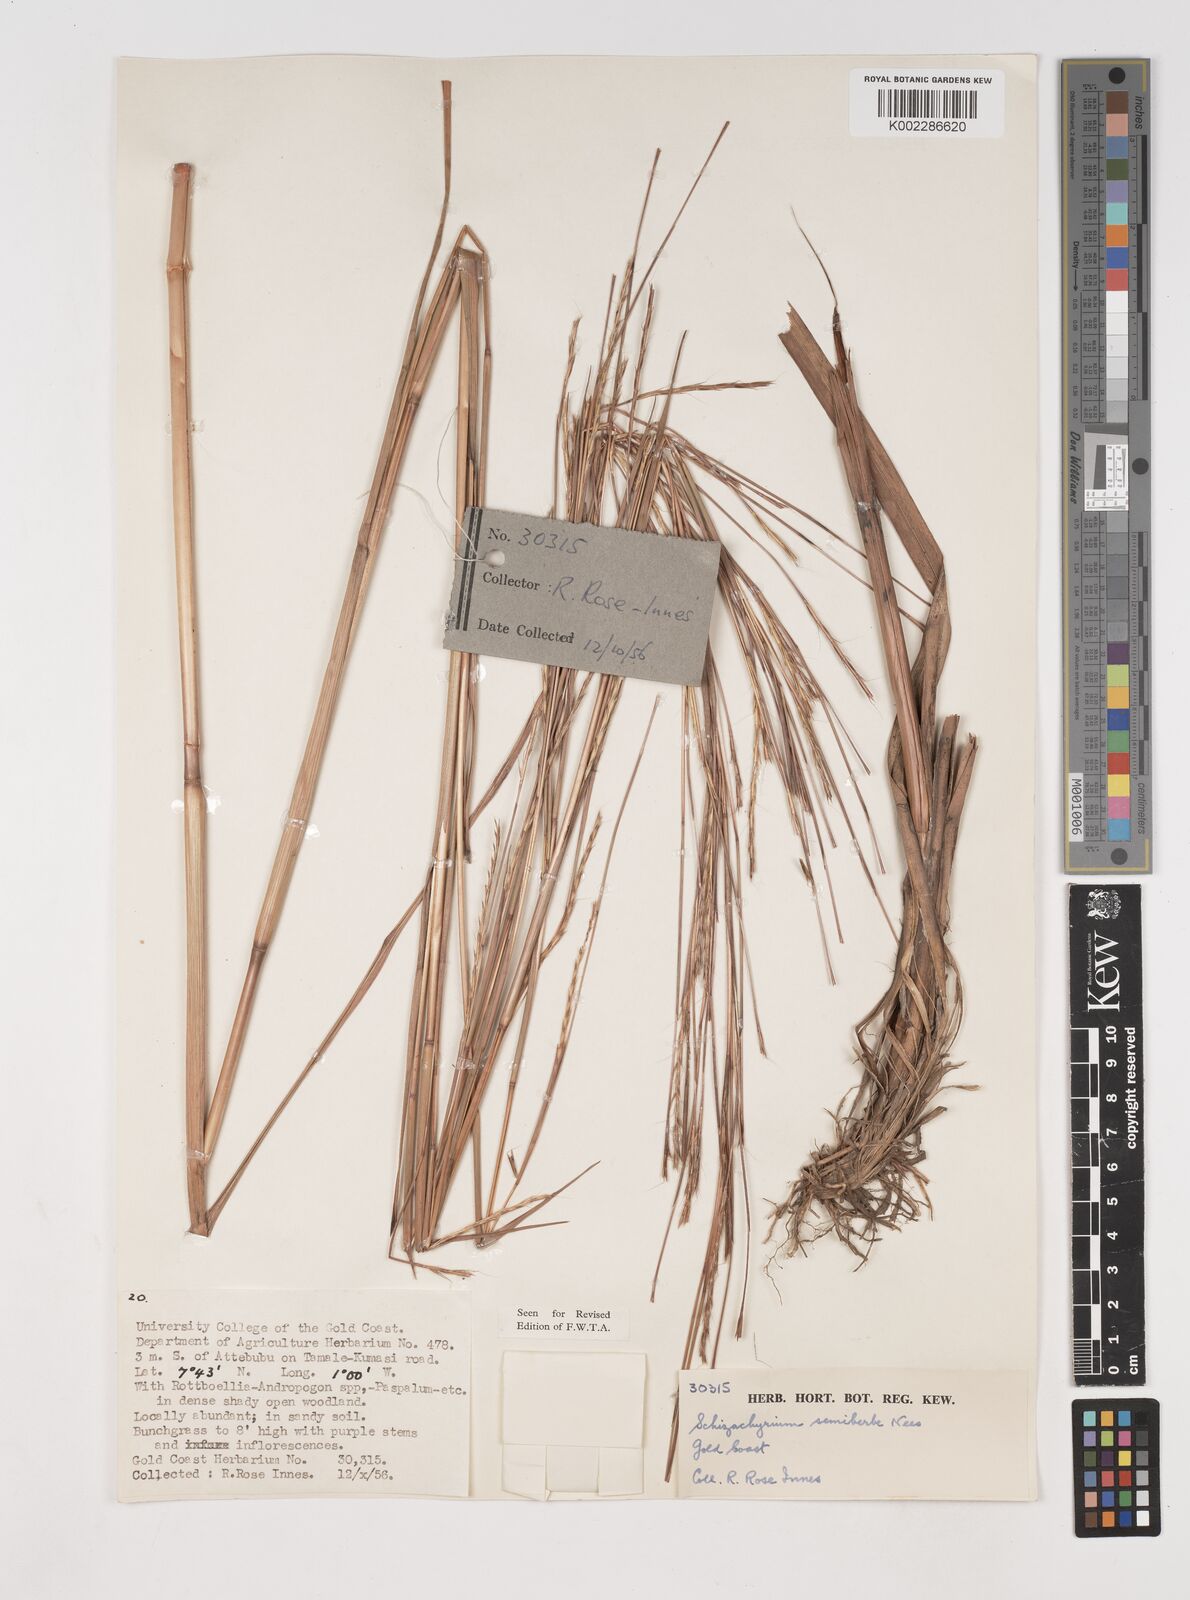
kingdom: Plantae
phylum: Tracheophyta
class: Liliopsida
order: Poales
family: Poaceae
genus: Schizachyrium
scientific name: Schizachyrium sanguineum
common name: Crimson bluestem
